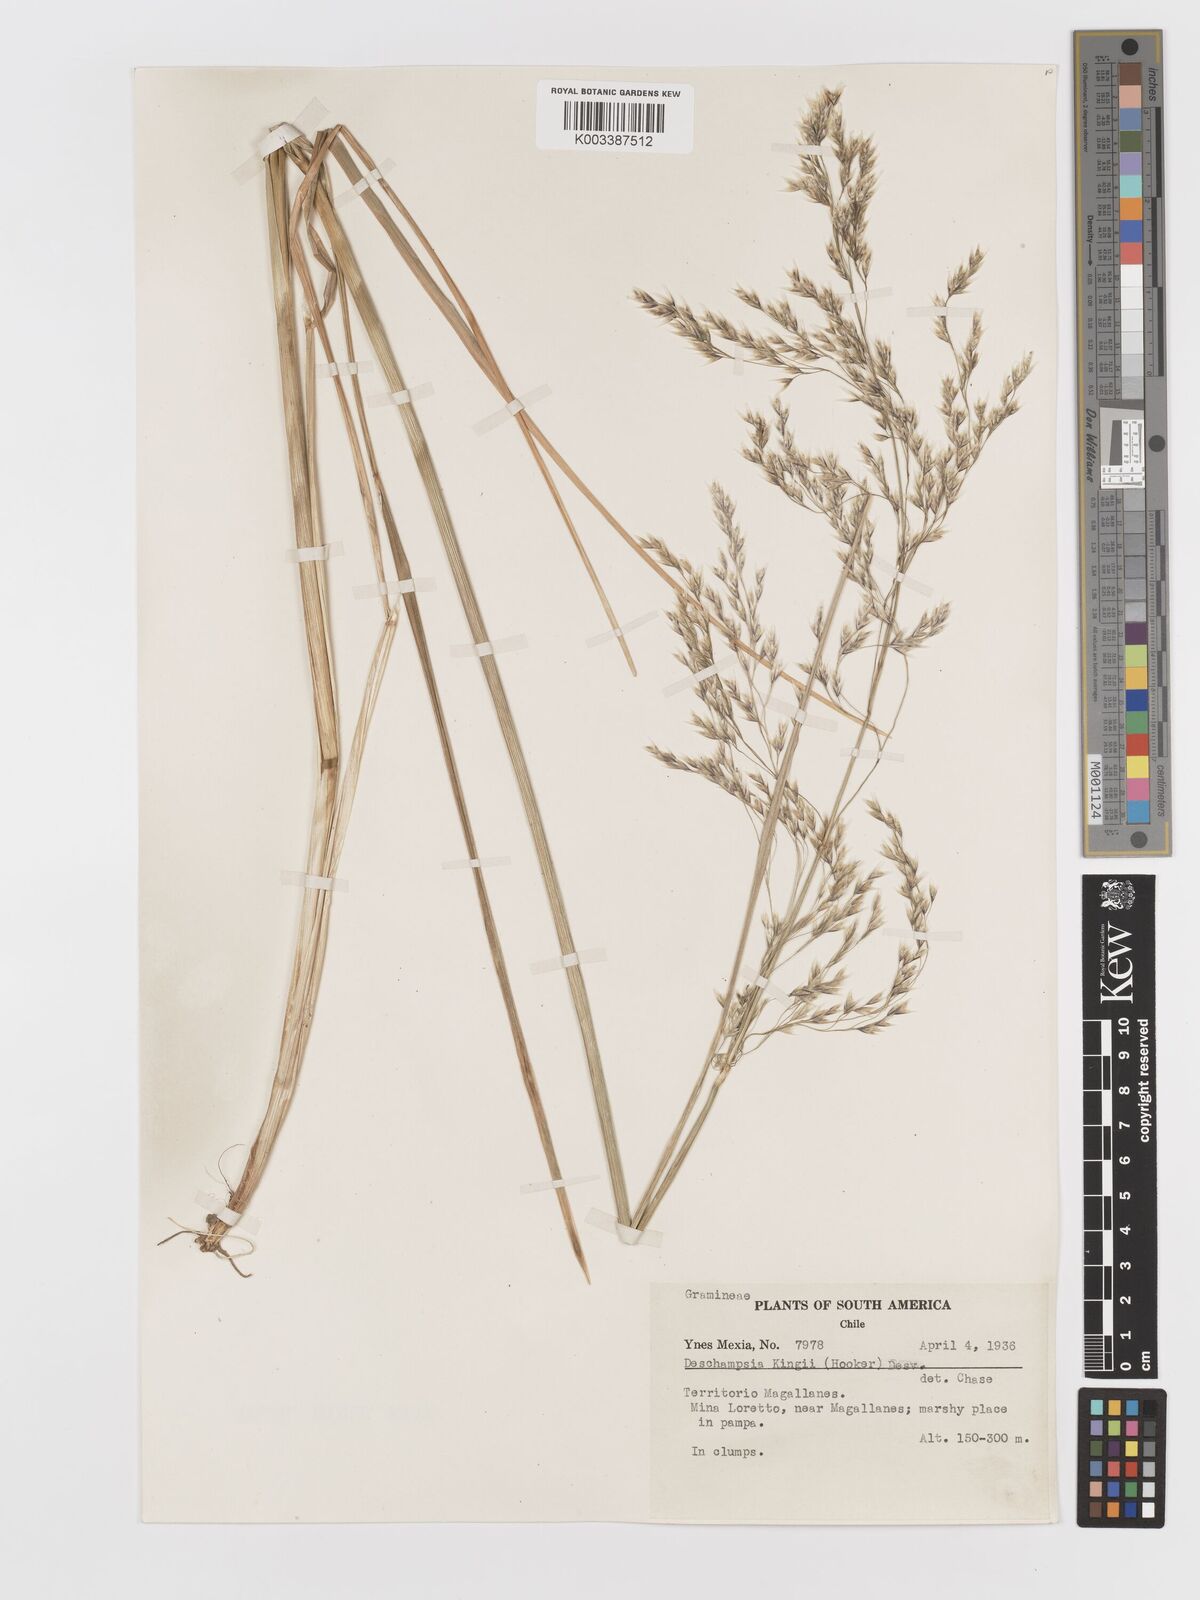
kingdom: Plantae
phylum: Tracheophyta
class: Liliopsida
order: Poales
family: Poaceae
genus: Deschampsia
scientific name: Deschampsia kingii
